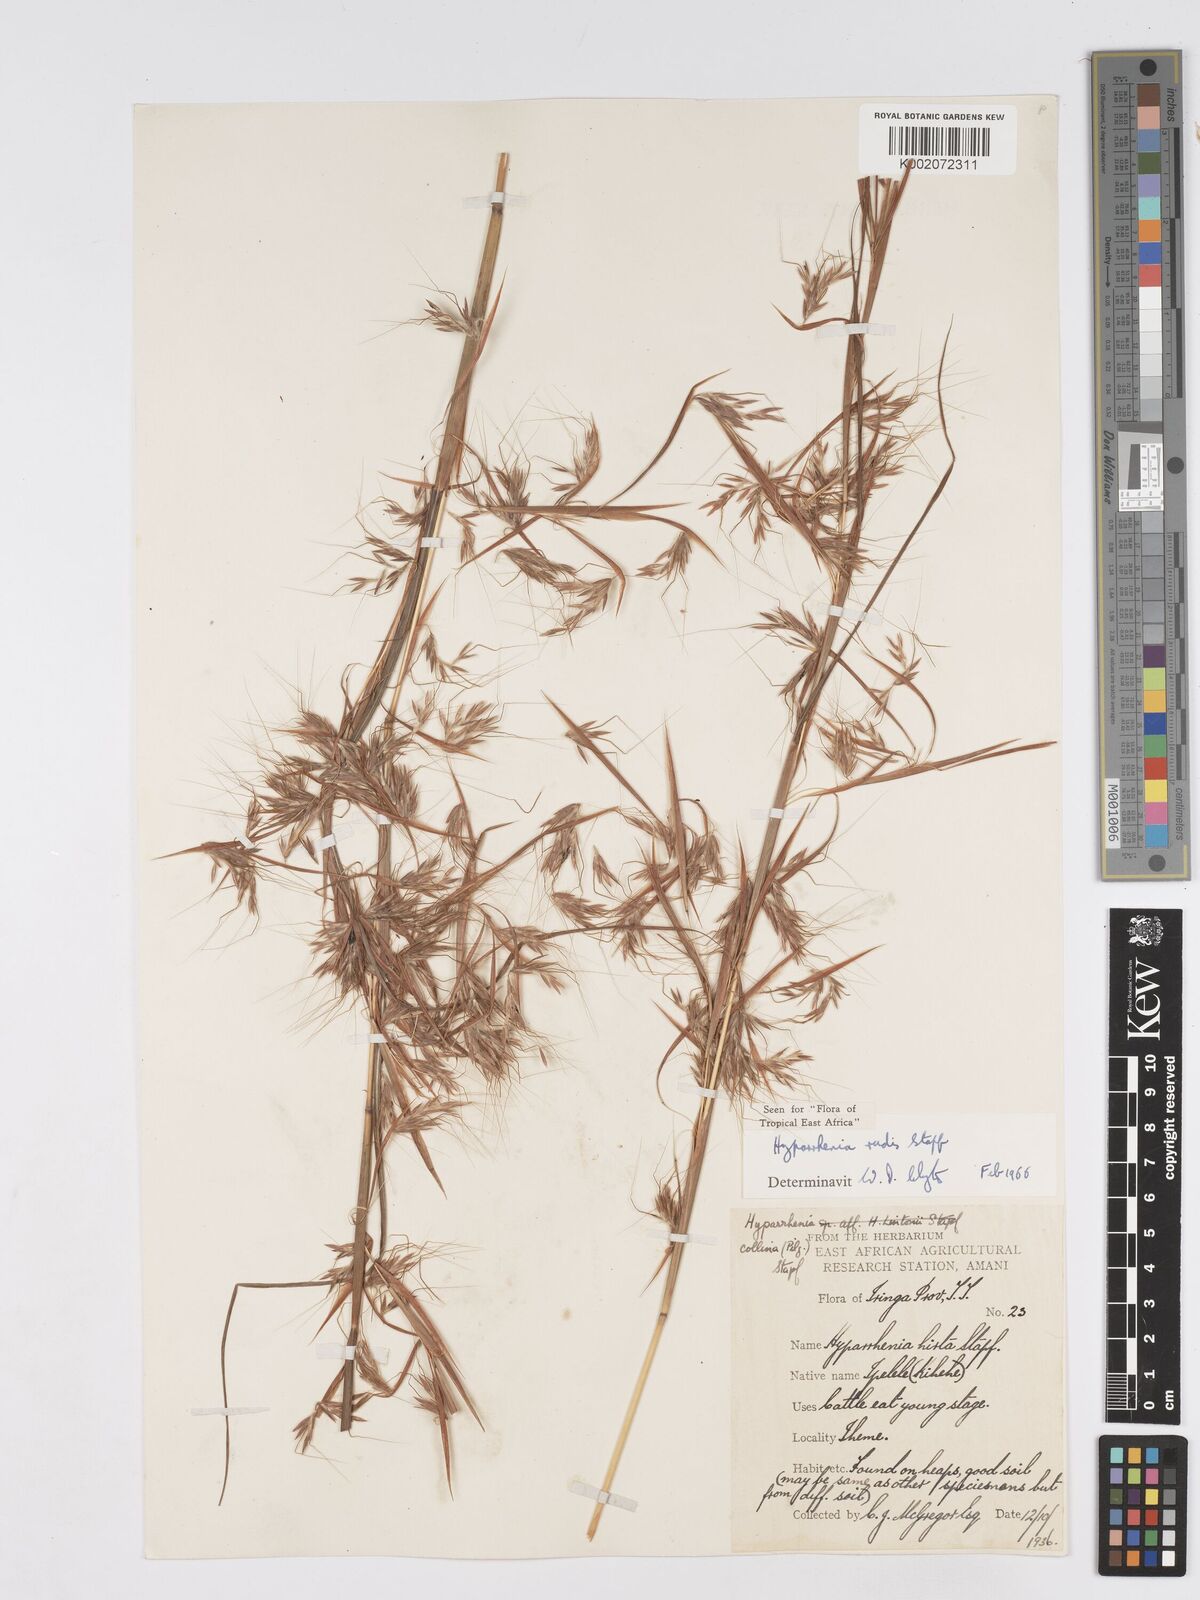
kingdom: Plantae
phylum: Tracheophyta
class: Liliopsida
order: Poales
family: Poaceae
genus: Hyparrhenia
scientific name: Hyparrhenia rudis
